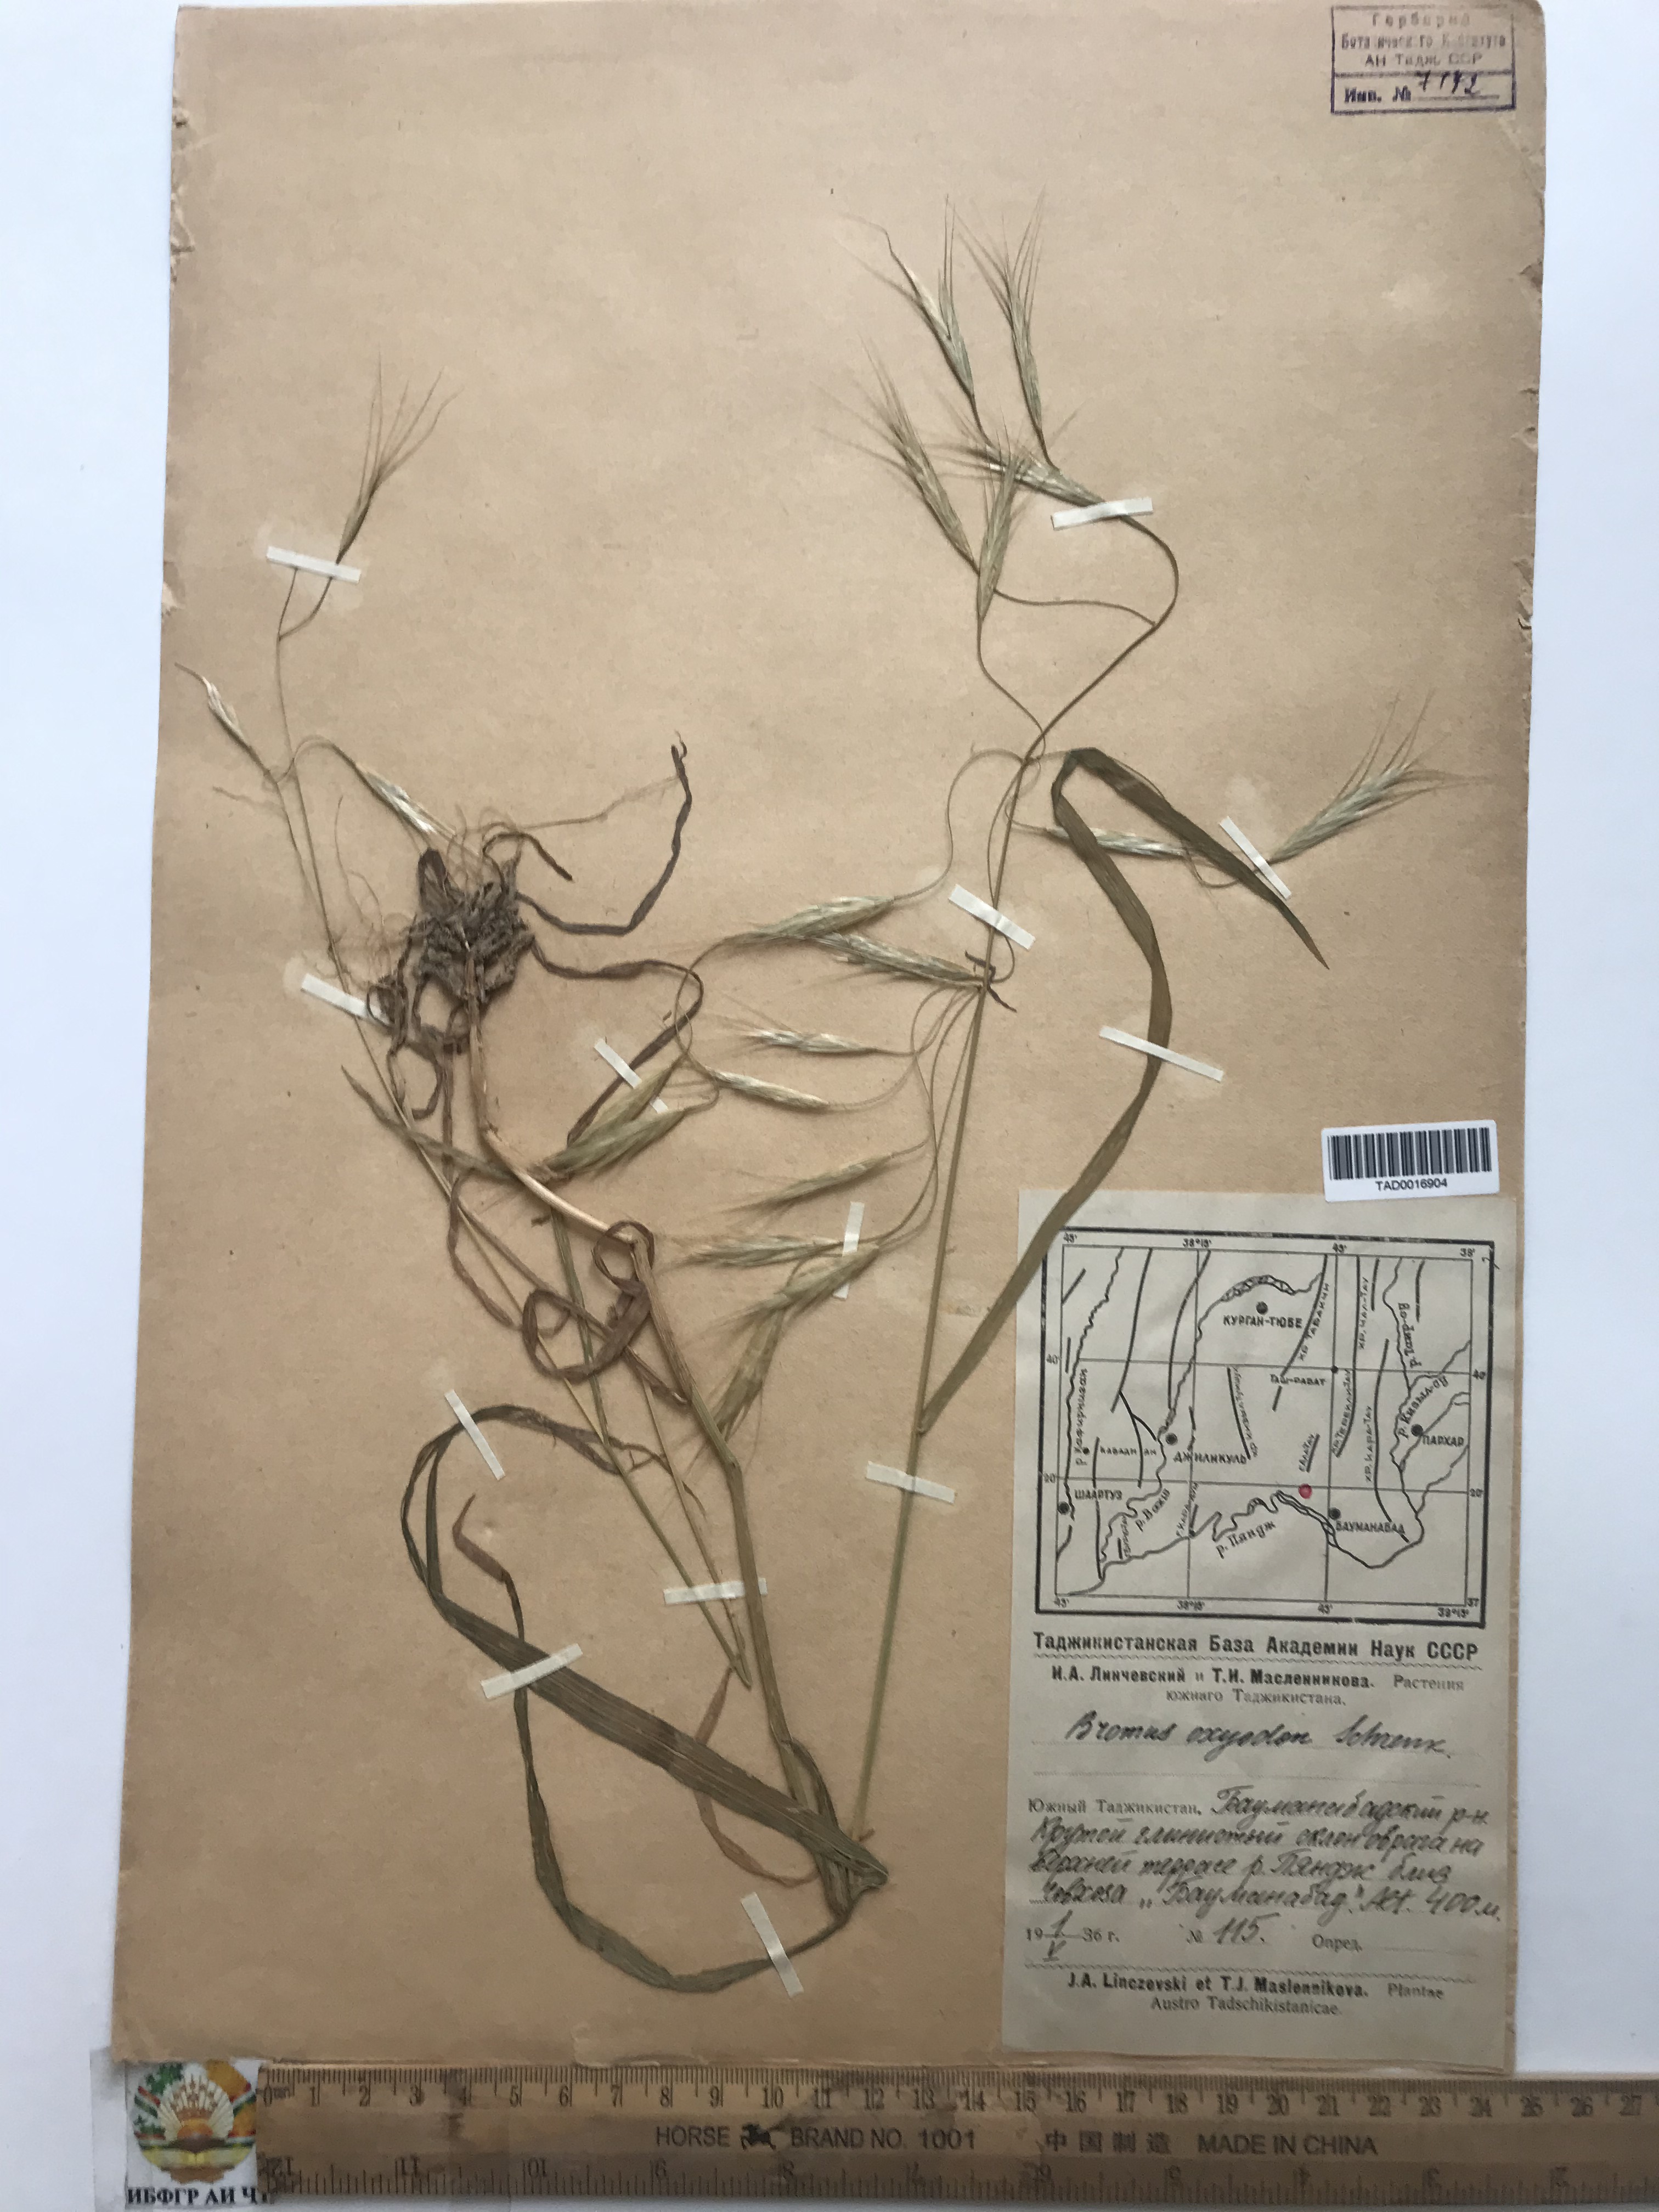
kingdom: Plantae
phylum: Tracheophyta
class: Liliopsida
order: Poales
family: Poaceae
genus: Bromus
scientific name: Bromus oxyodon
